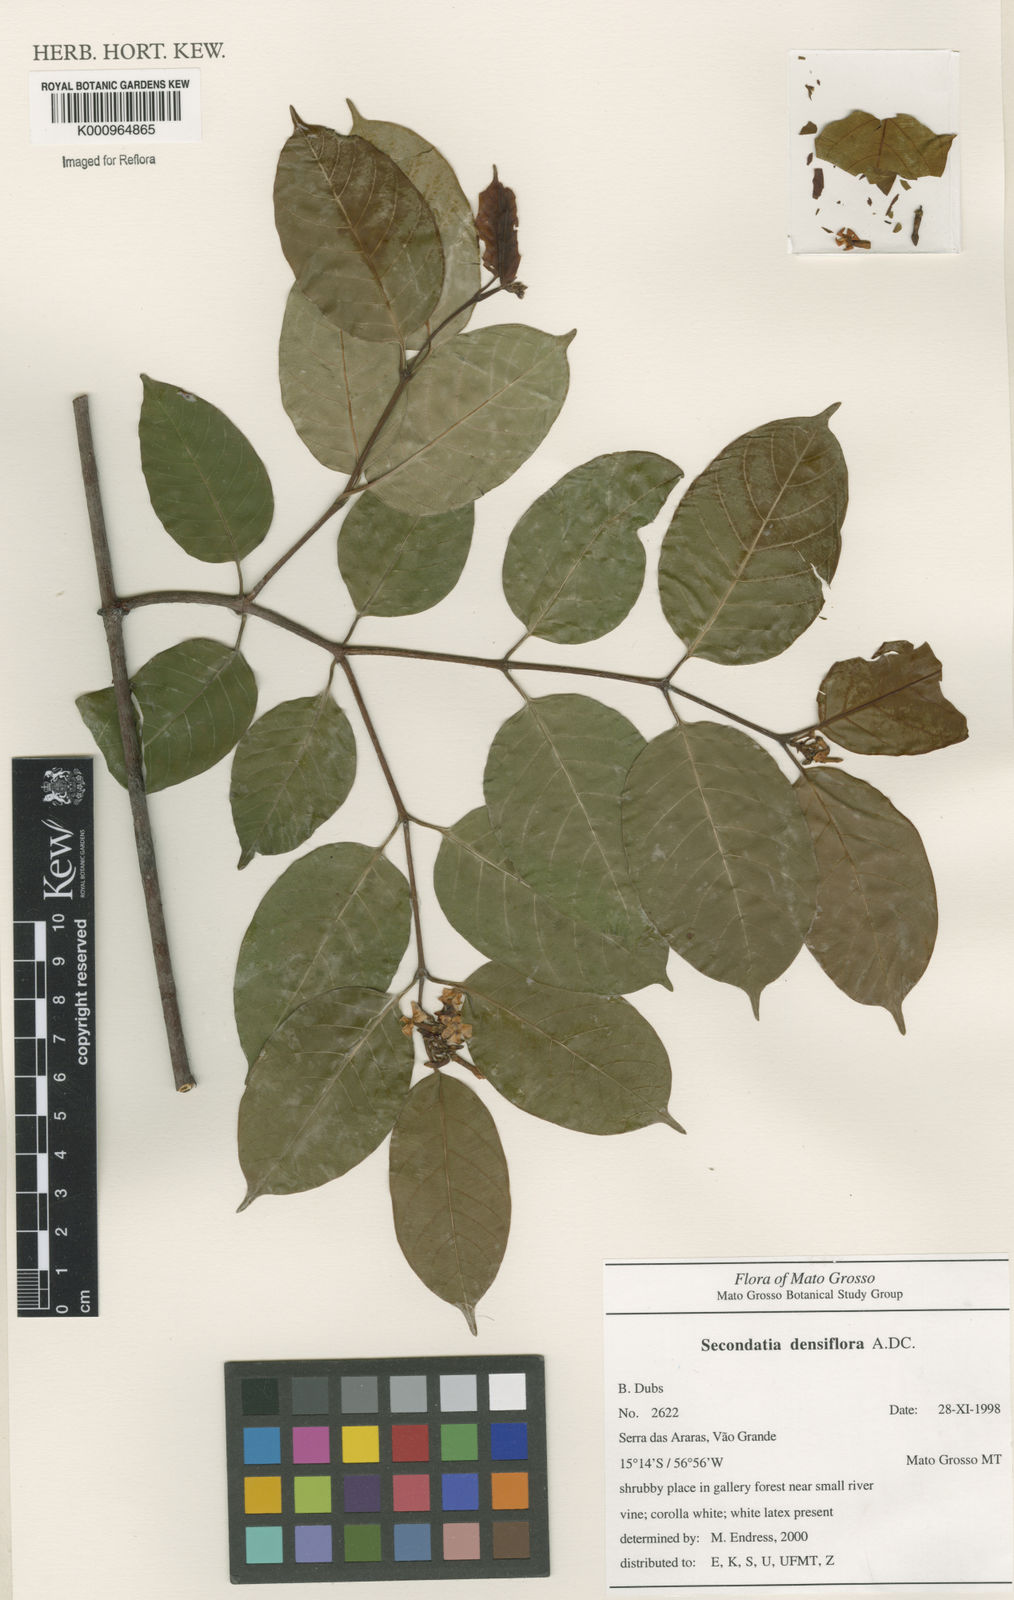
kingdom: Plantae
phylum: Tracheophyta
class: Magnoliopsida
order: Gentianales
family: Apocynaceae
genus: Secondatia
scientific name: Secondatia densiflora
